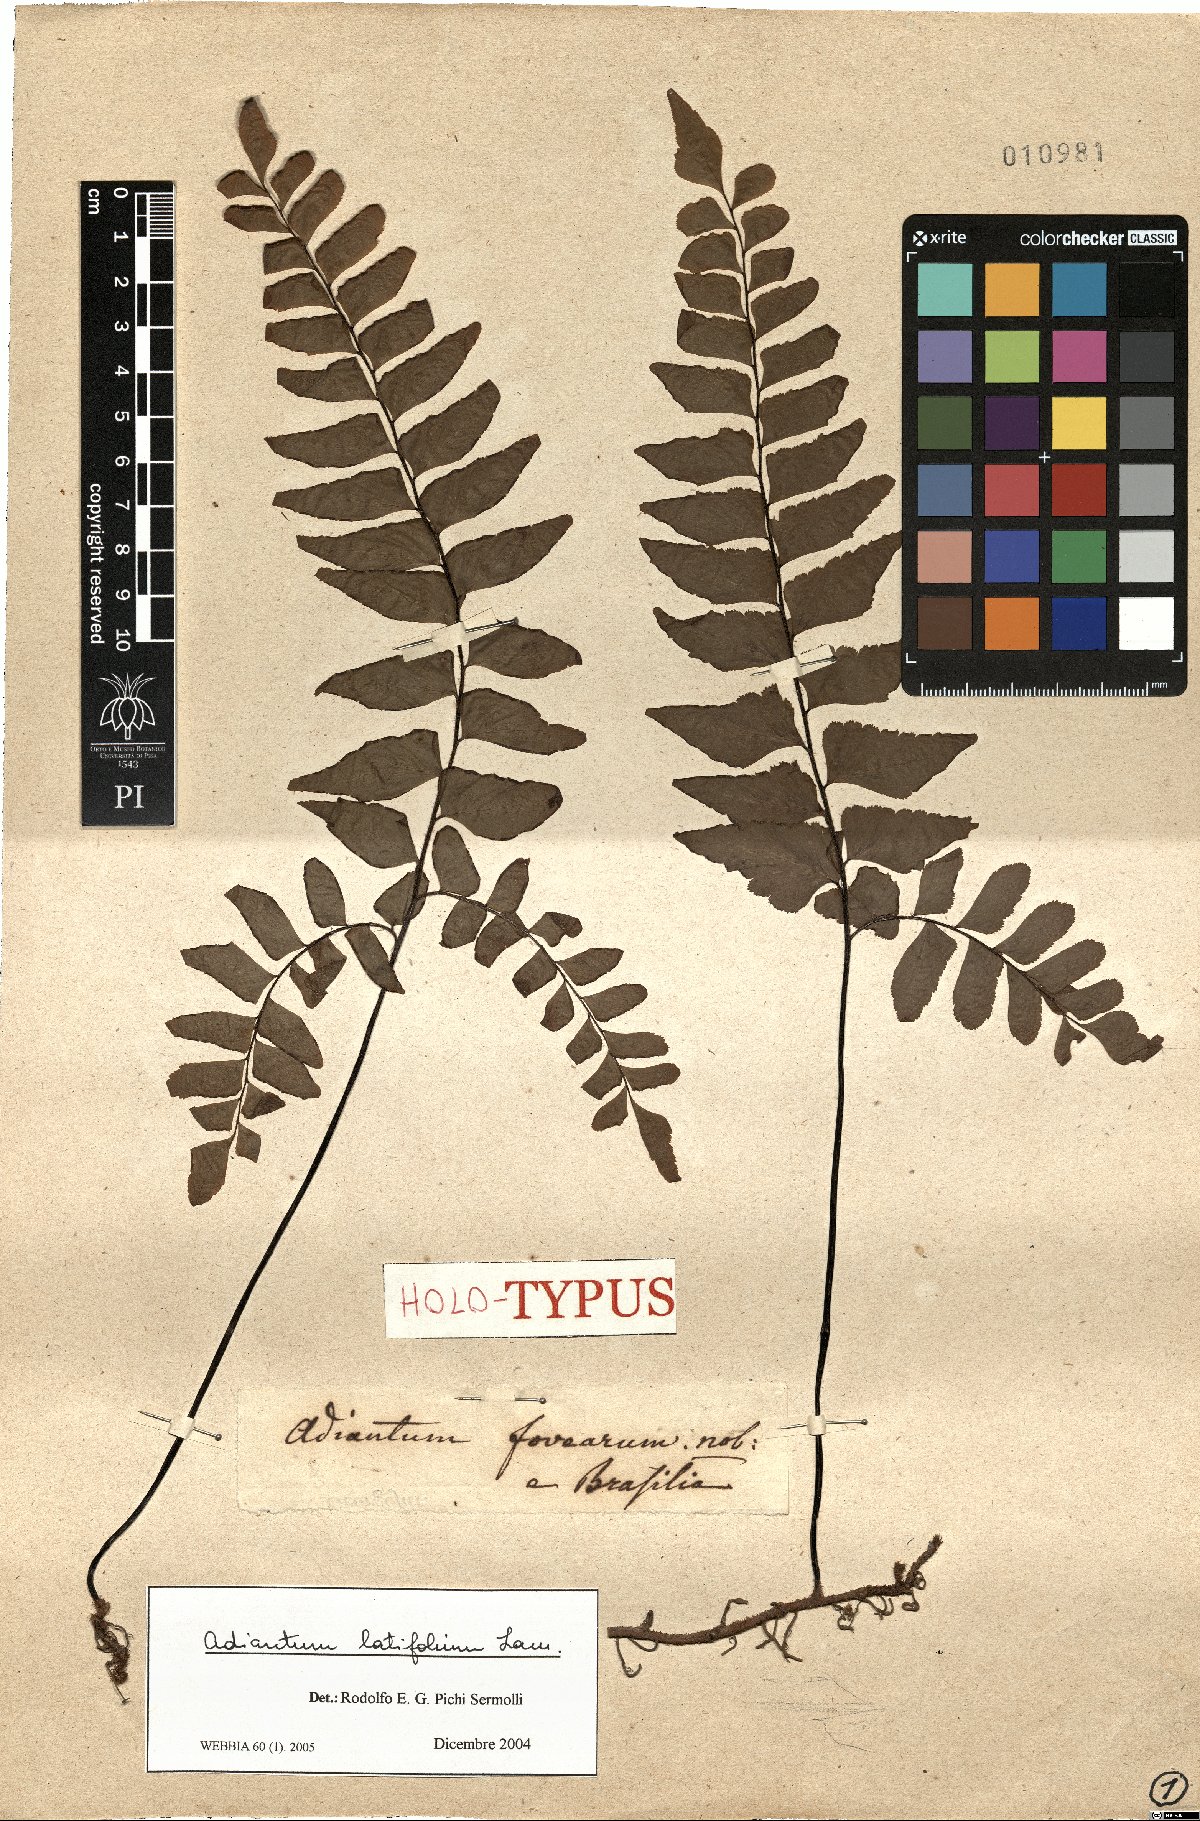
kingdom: Plantae
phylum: Tracheophyta
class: Polypodiopsida
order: Polypodiales
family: Pteridaceae
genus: Adiantum
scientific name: Adiantum latifolium
